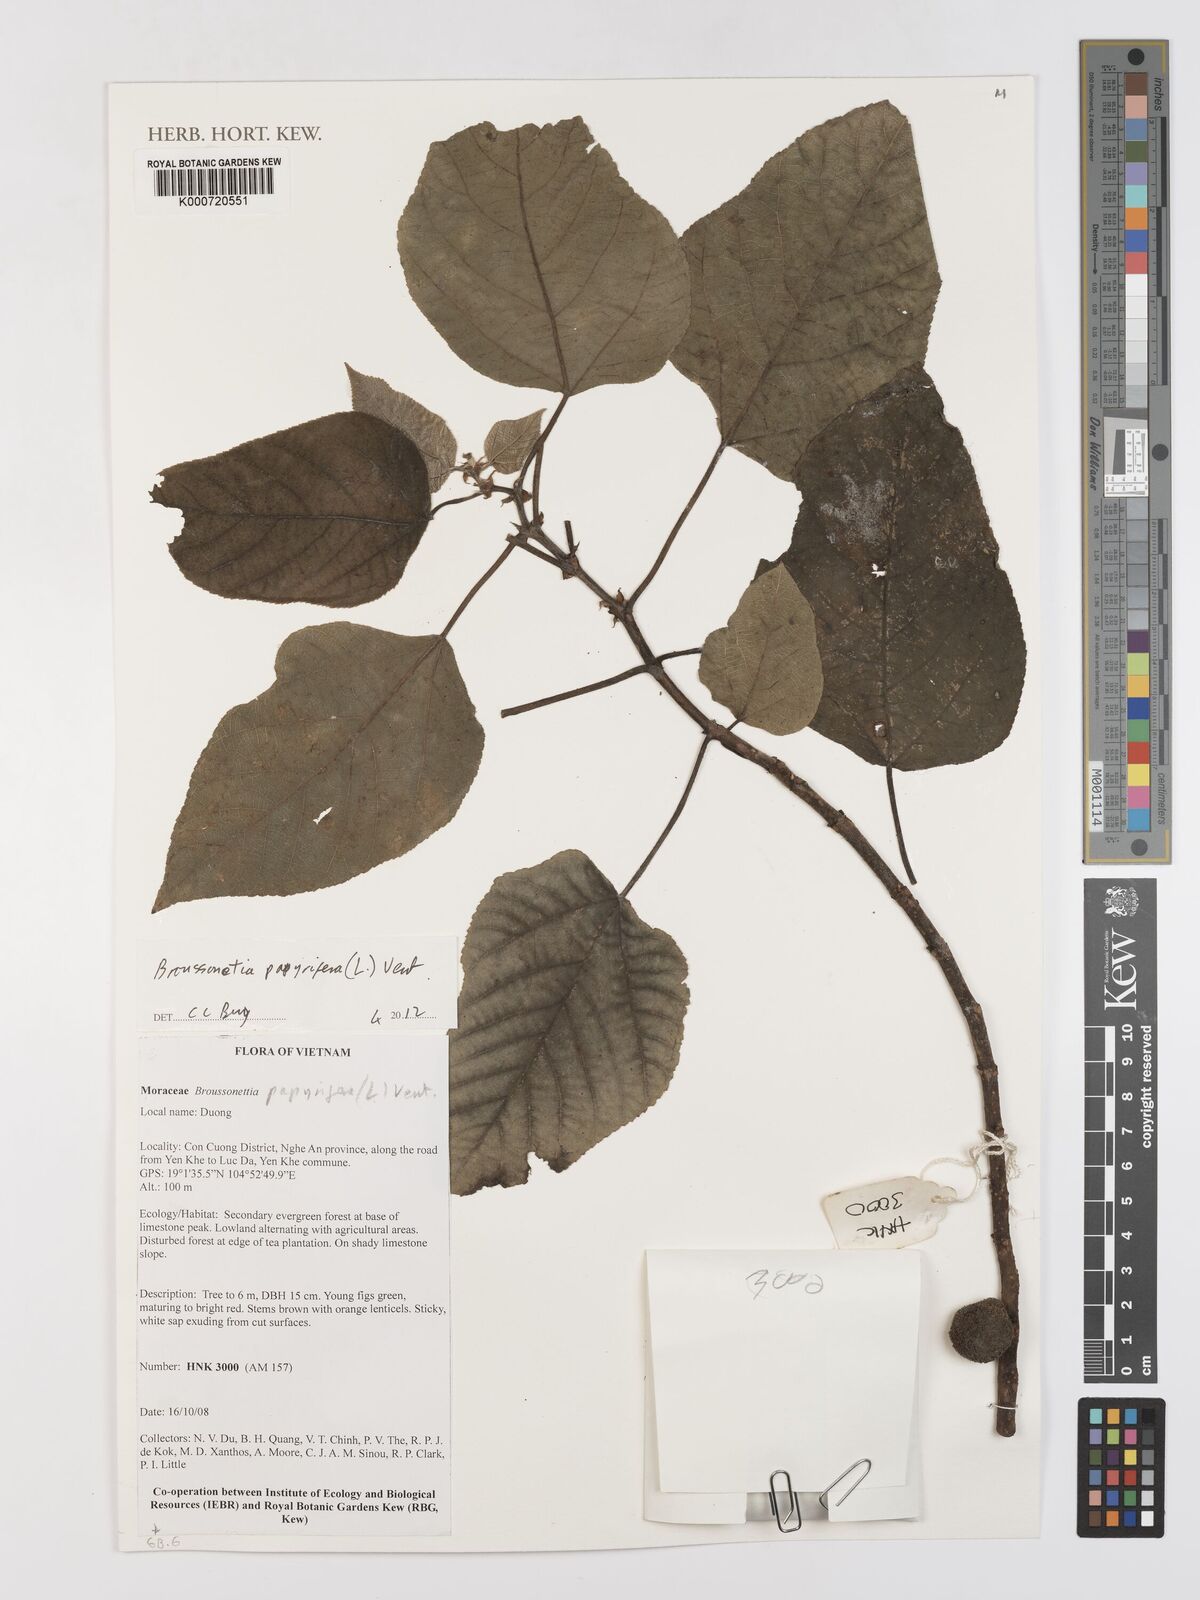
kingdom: Plantae
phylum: Tracheophyta
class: Magnoliopsida
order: Rosales
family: Moraceae
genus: Broussonetia
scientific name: Broussonetia
